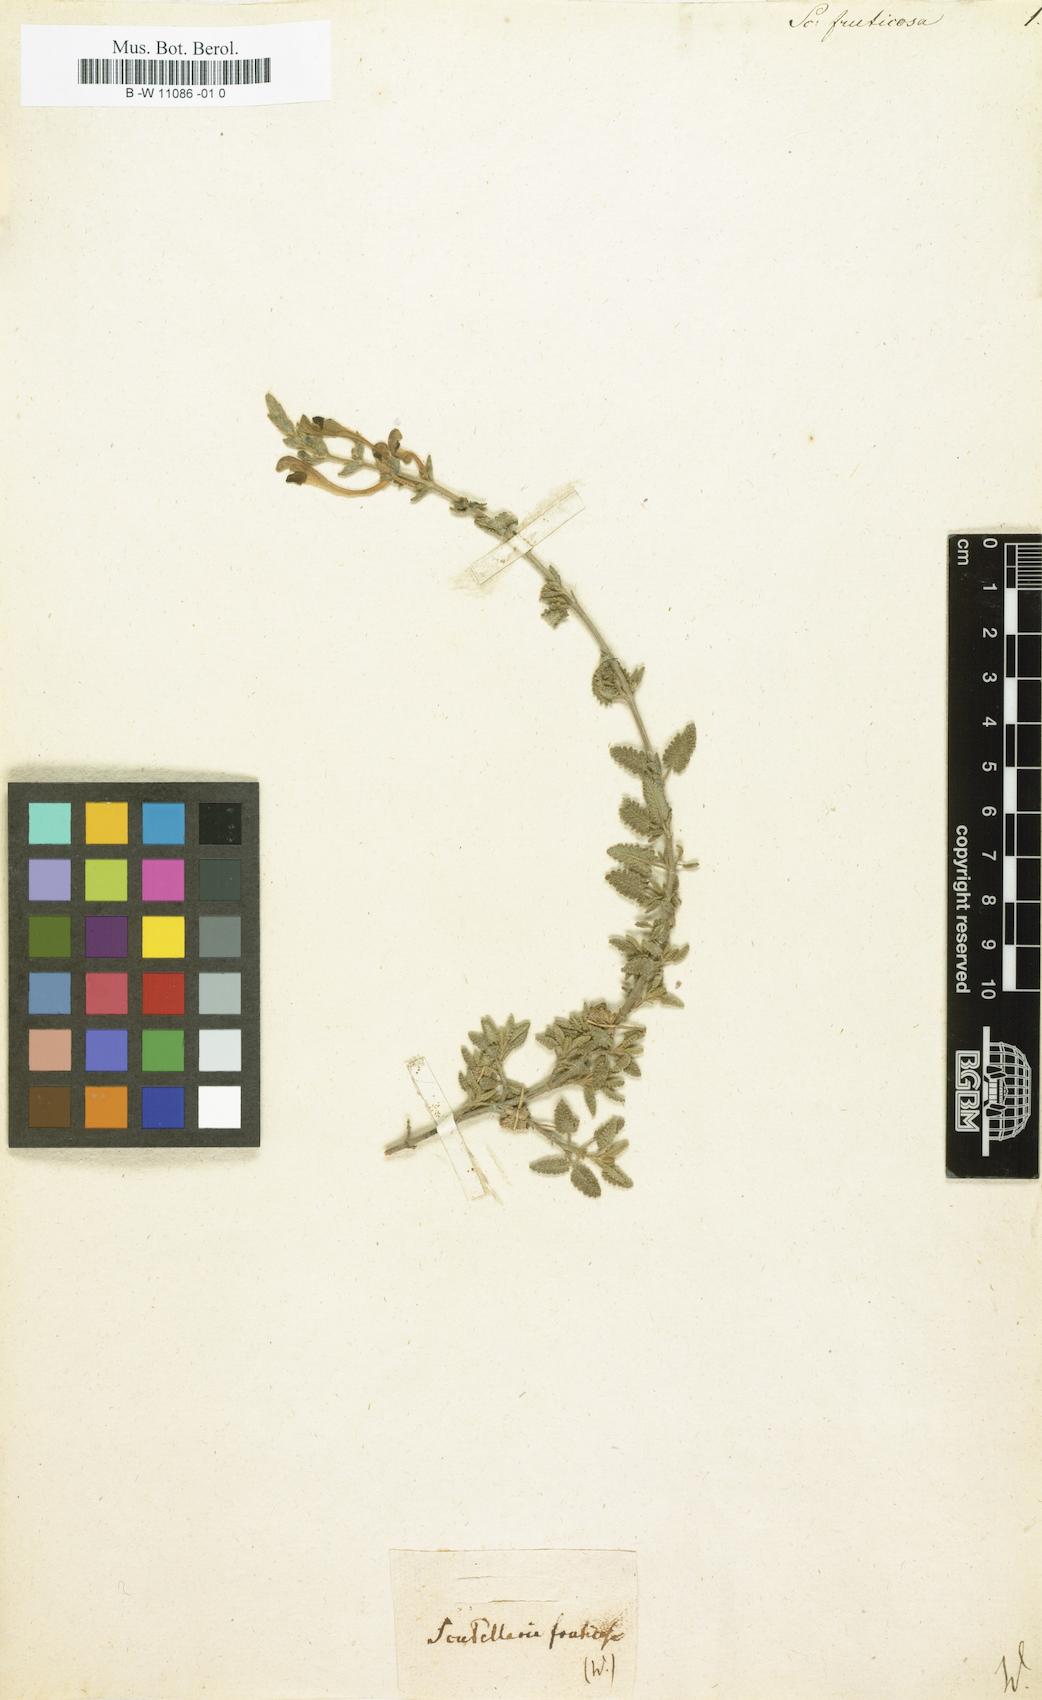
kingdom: Plantae
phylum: Tracheophyta
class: Magnoliopsida
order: Lamiales
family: Lamiaceae
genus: Scutellaria
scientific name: Scutellaria fruticosa
